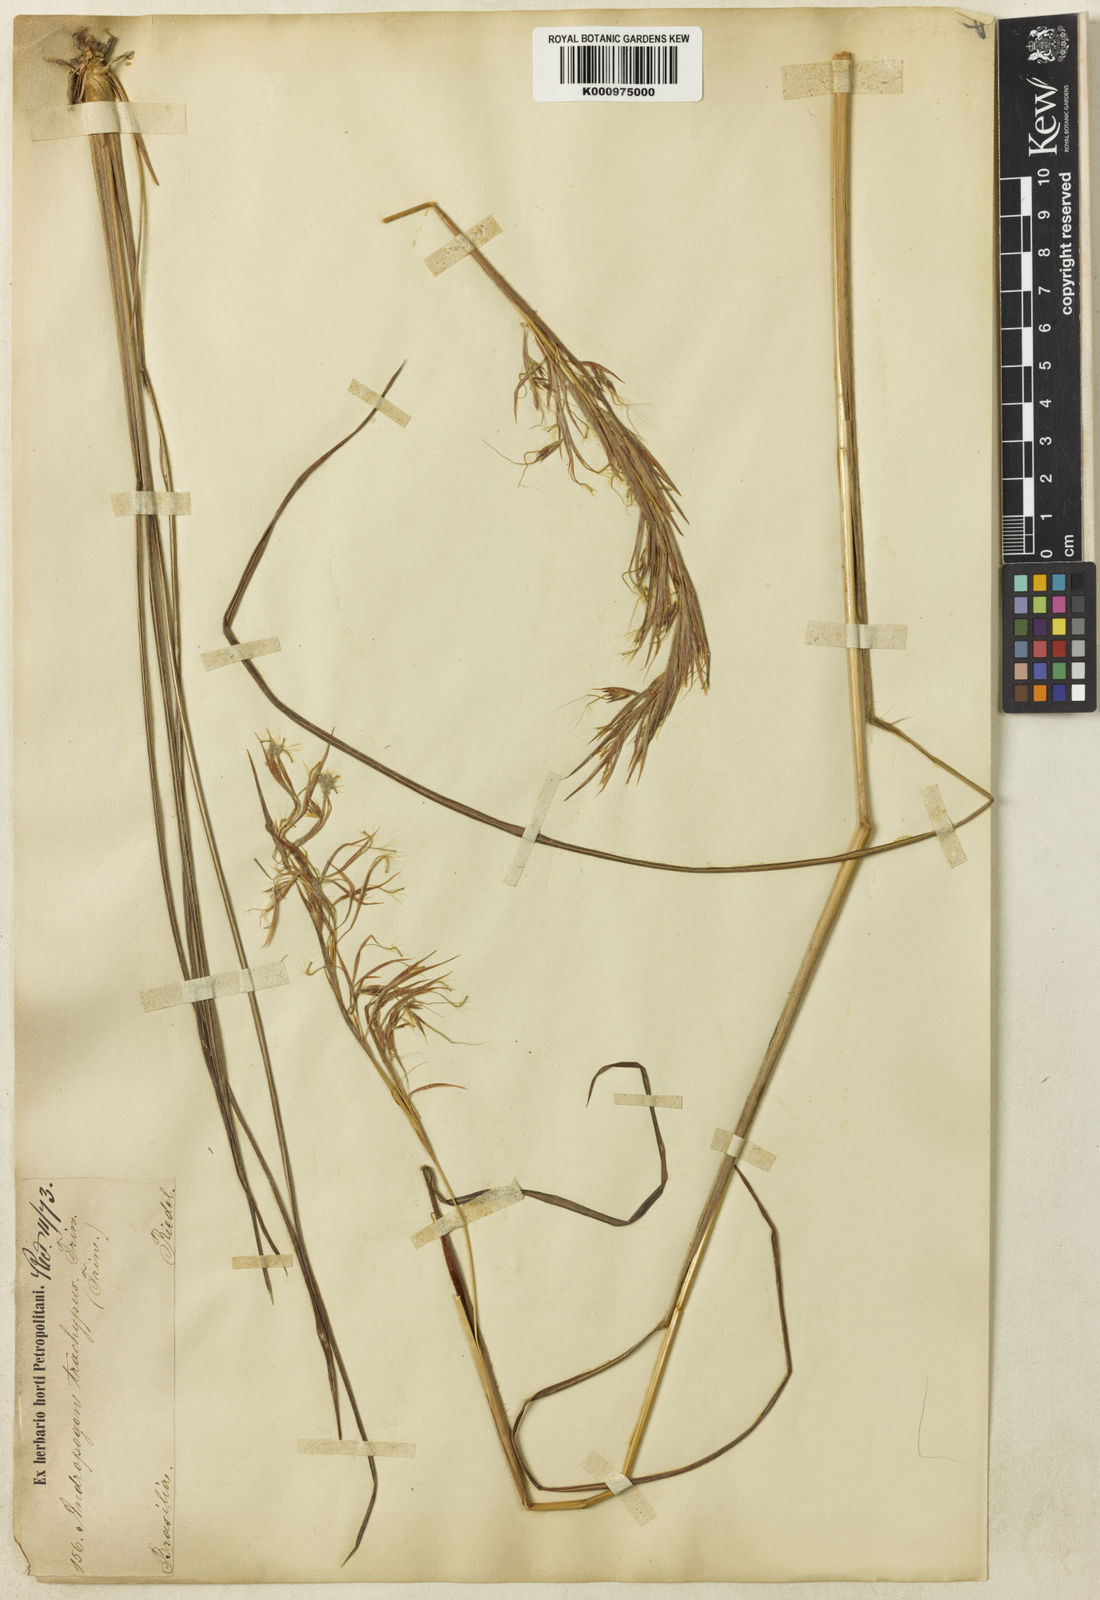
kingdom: Plantae
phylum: Tracheophyta
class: Liliopsida
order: Poales
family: Poaceae
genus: Hyparrhenia
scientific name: Hyparrhenia bracteata
